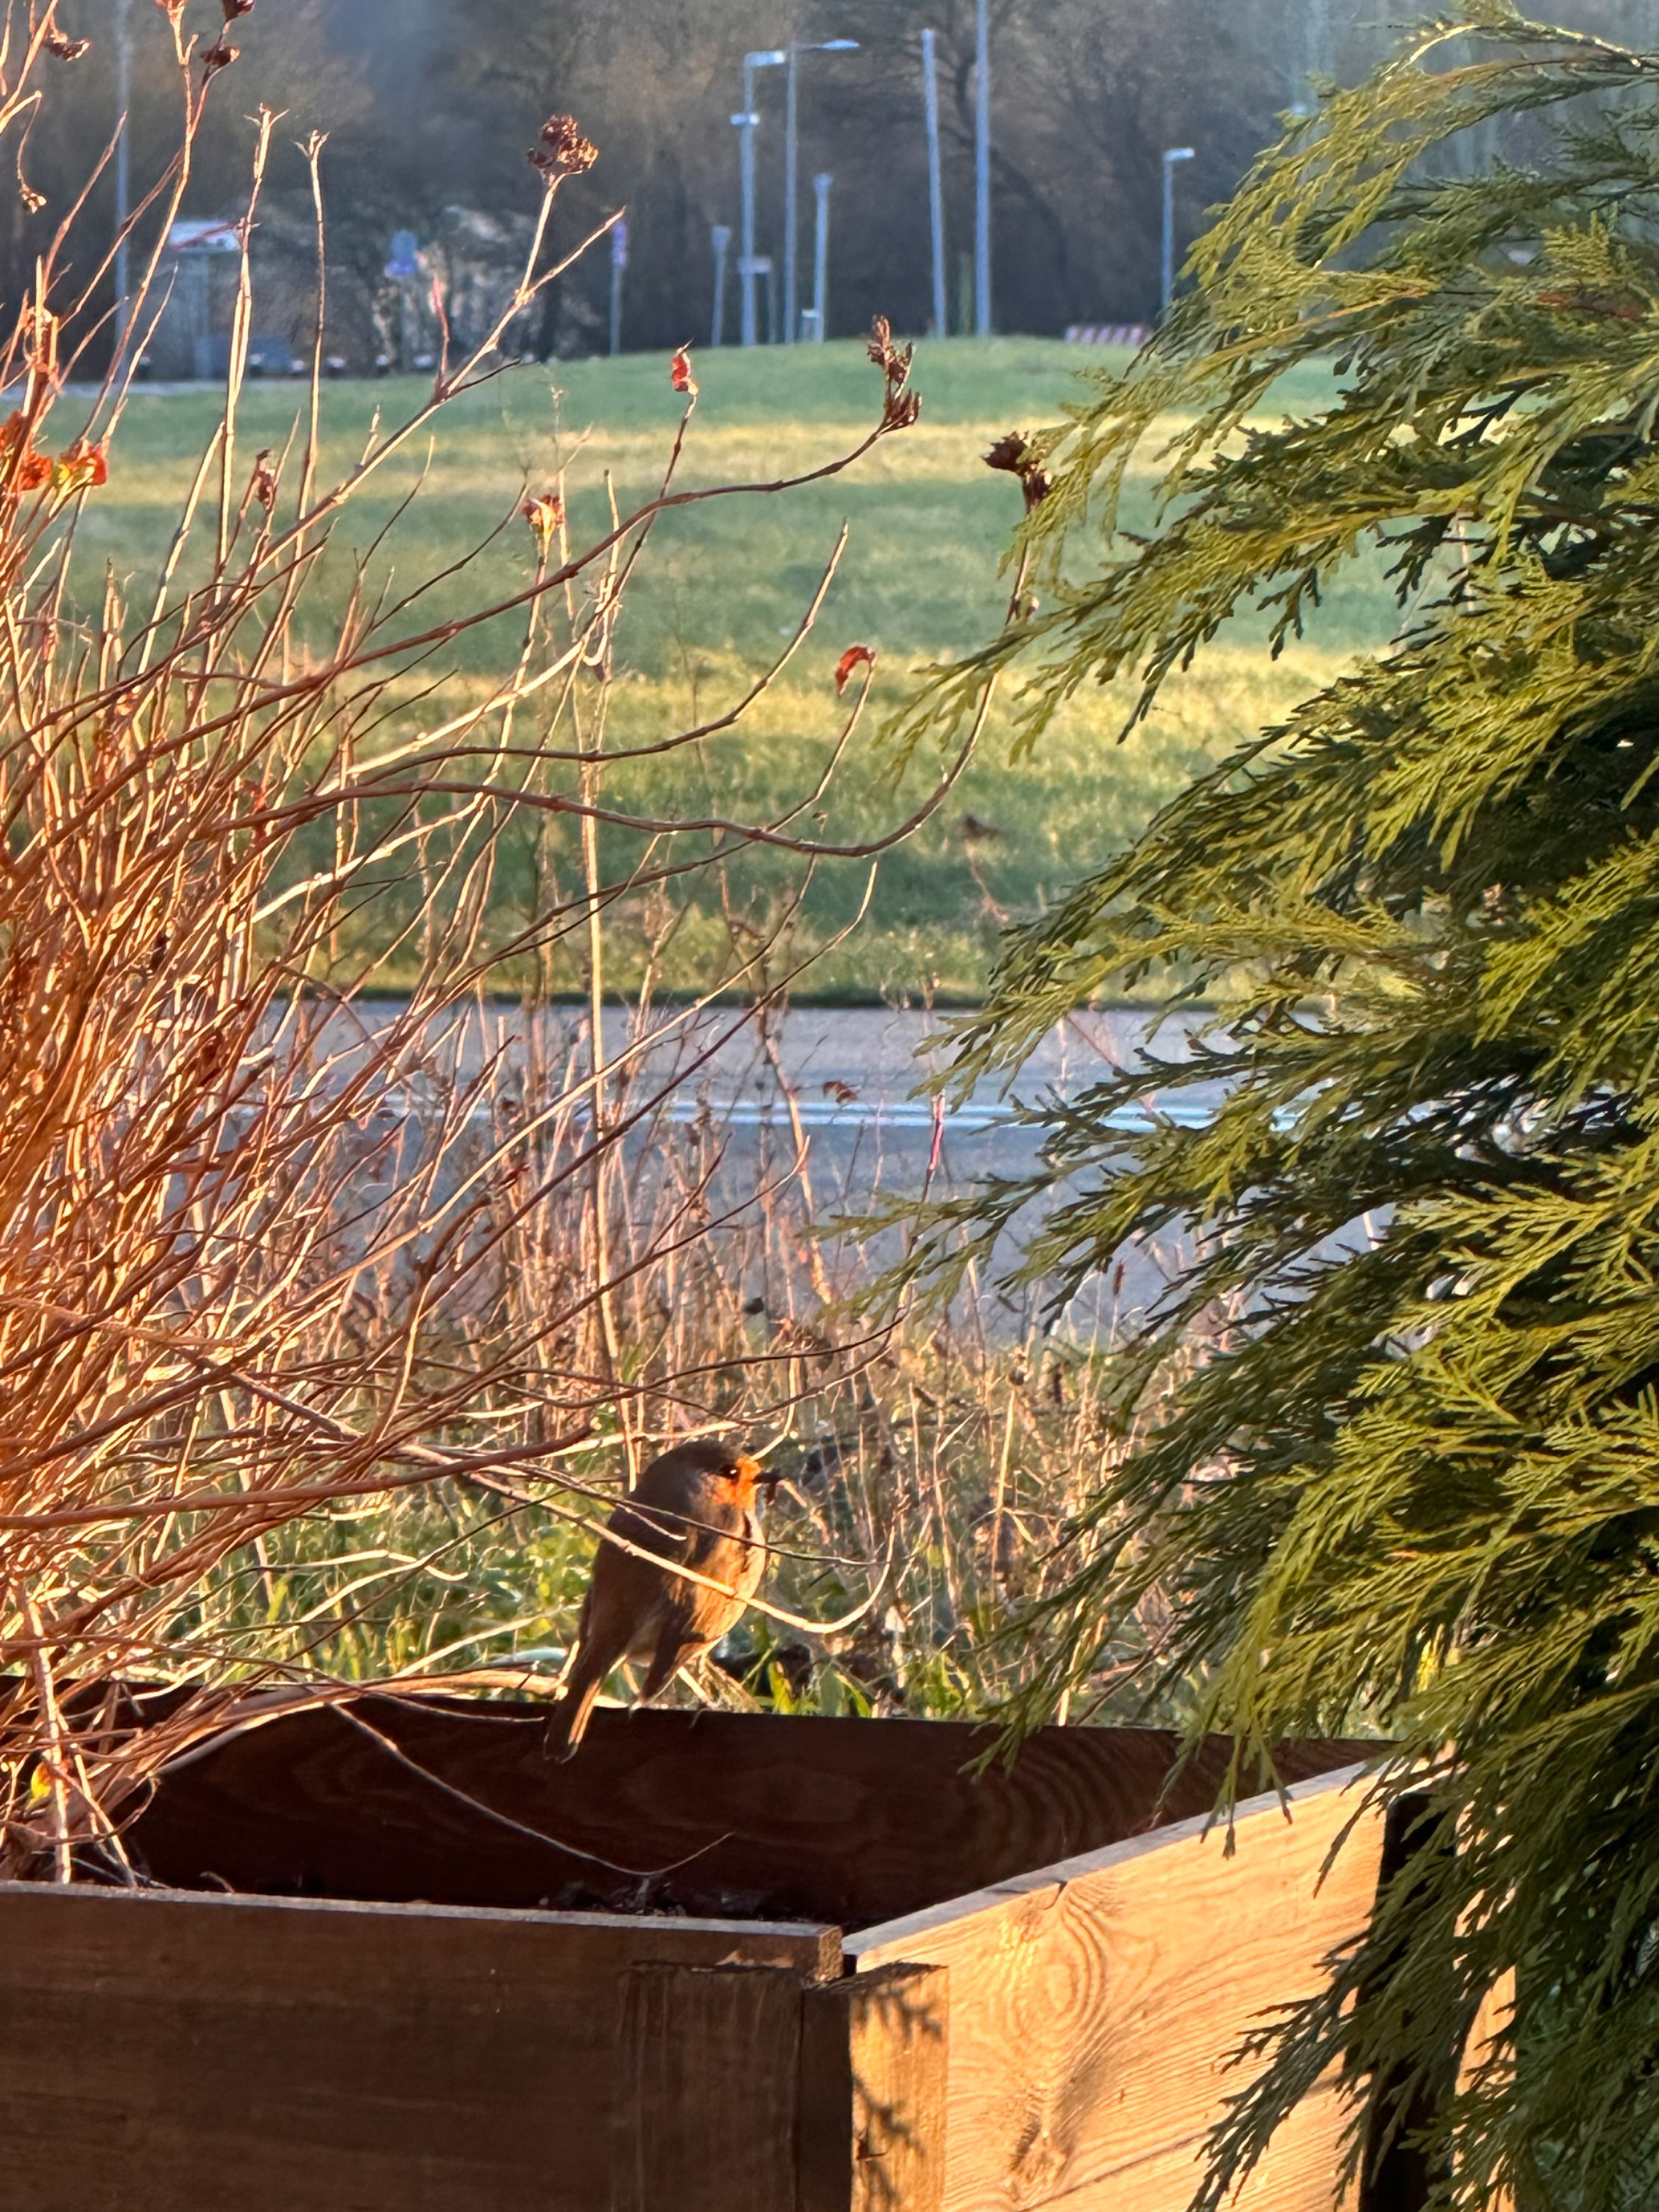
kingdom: Animalia
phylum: Chordata
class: Aves
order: Passeriformes
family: Muscicapidae
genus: Erithacus
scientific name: Erithacus rubecula
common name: Rødhals/rødkælk
